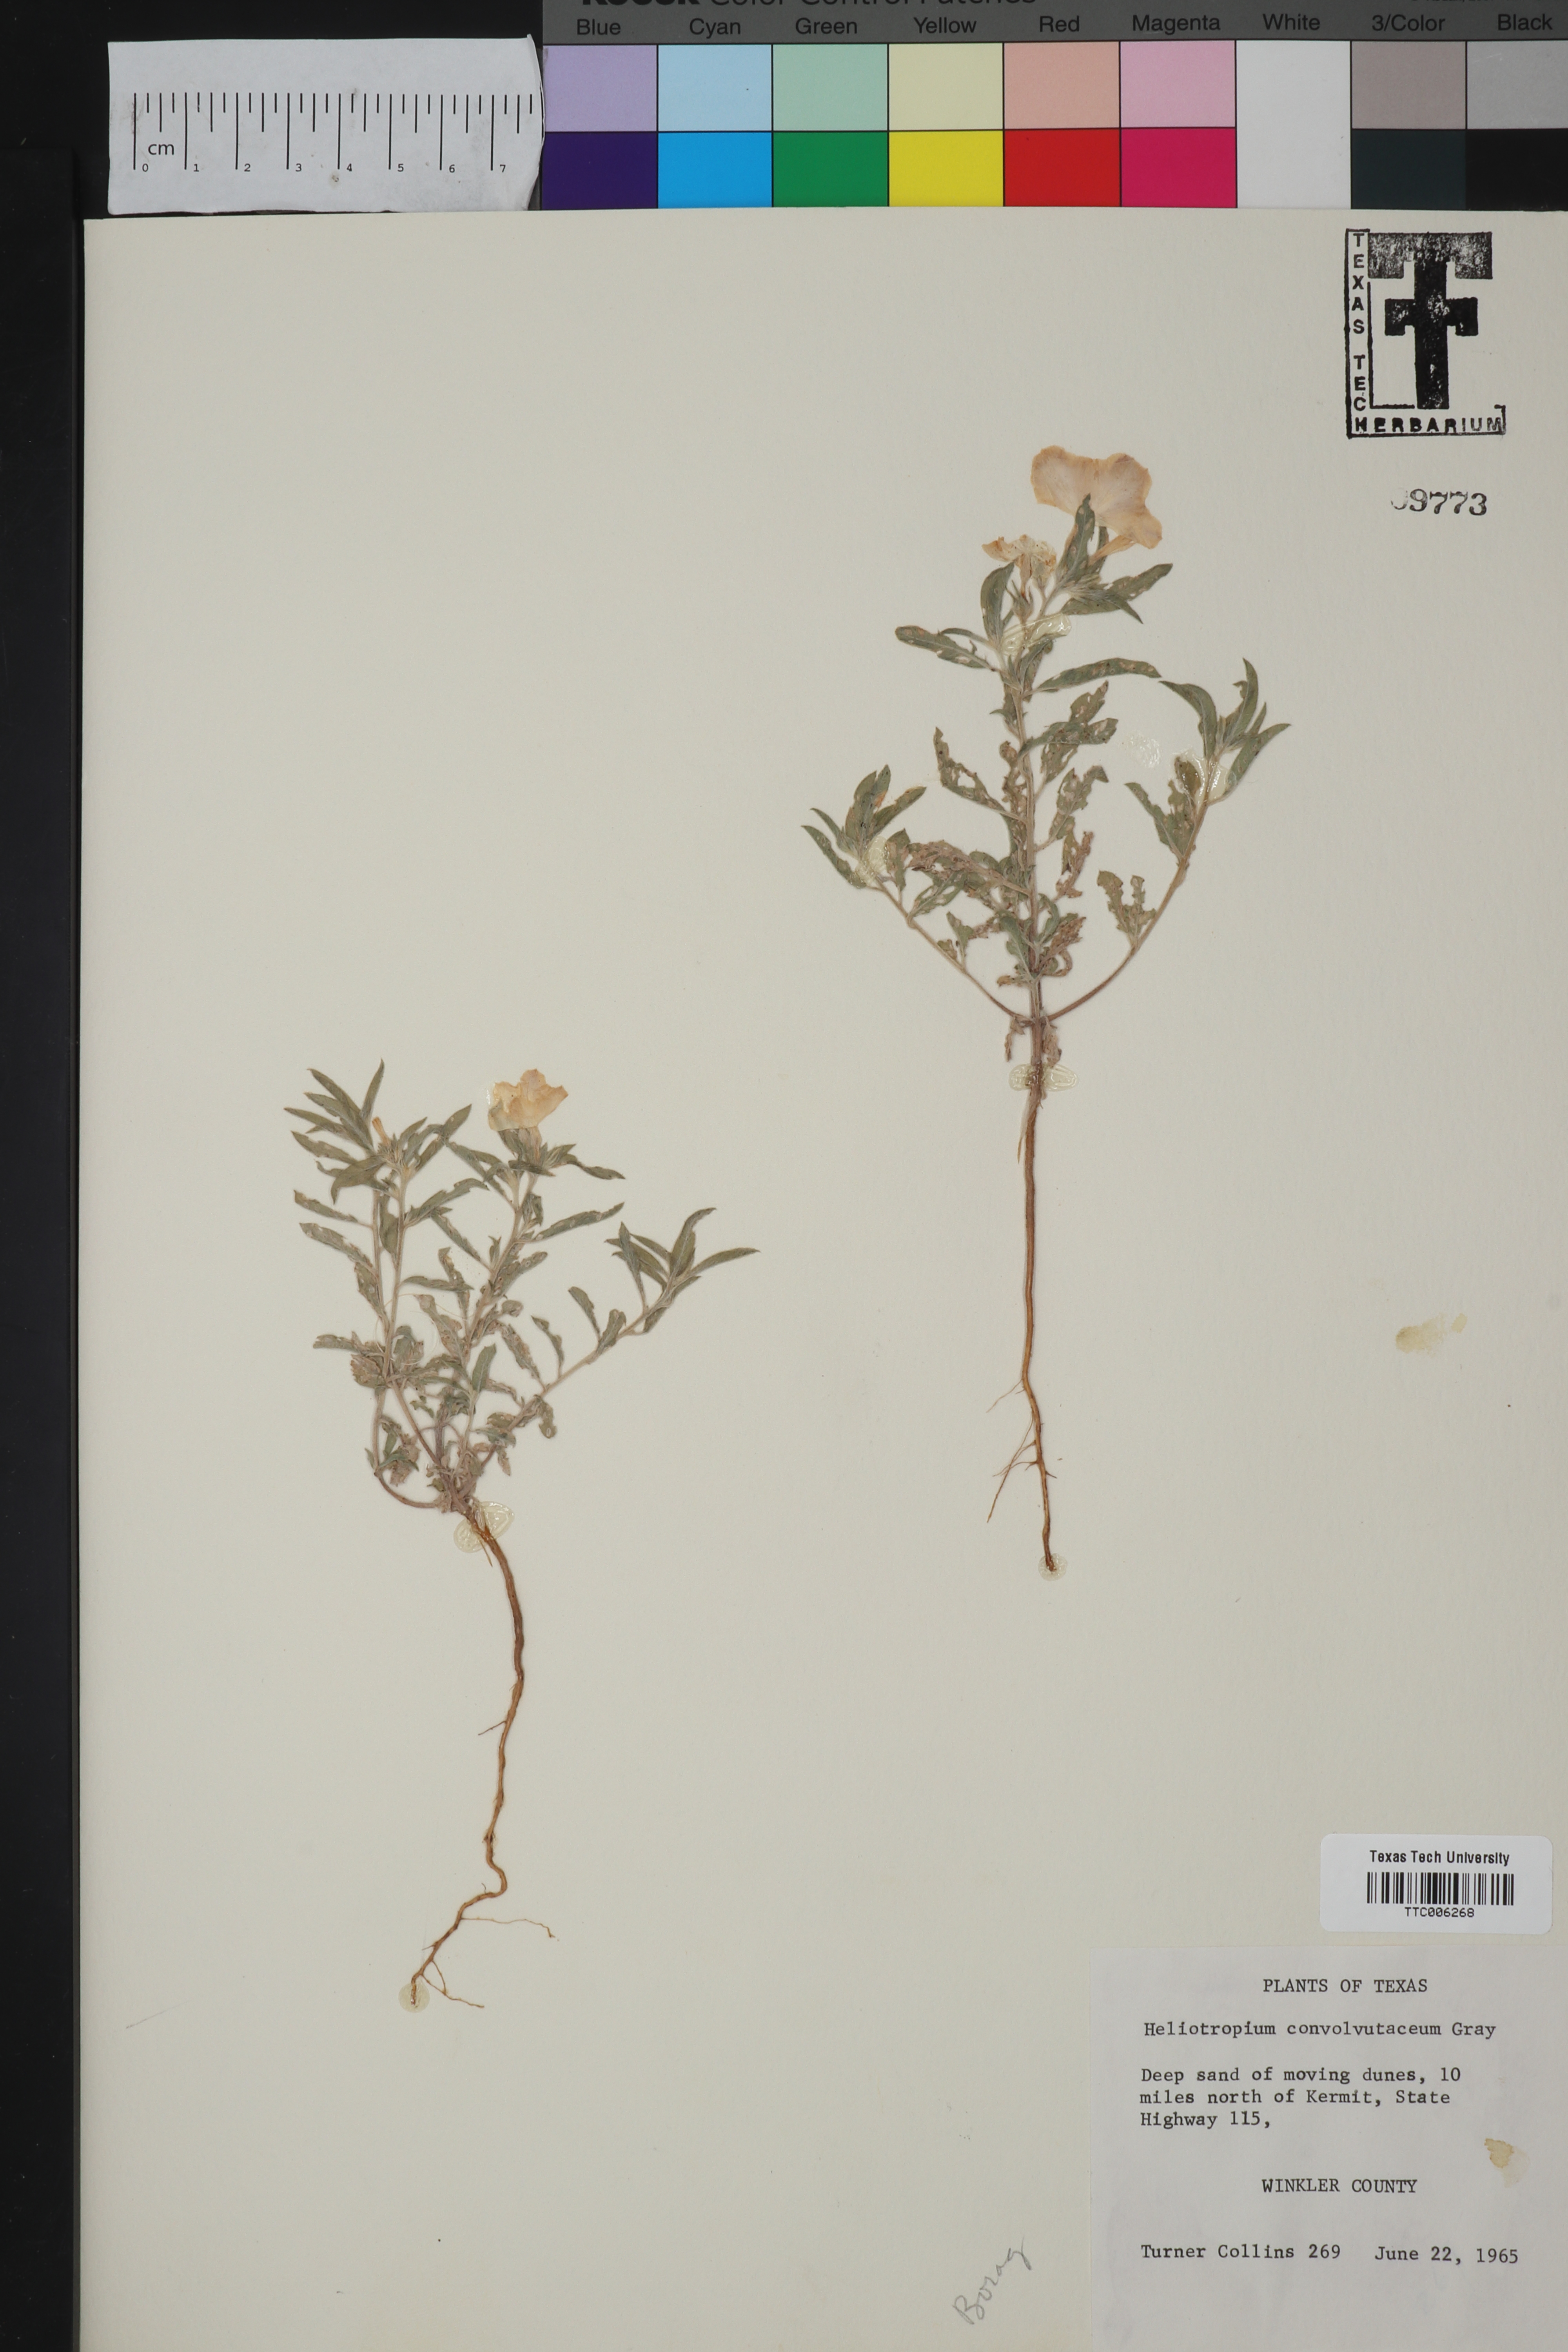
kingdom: Plantae
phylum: Tracheophyta
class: Magnoliopsida
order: Boraginales
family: Heliotropiaceae
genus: Euploca
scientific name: Euploca convolvulacea
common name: Bindweed heliotrope
